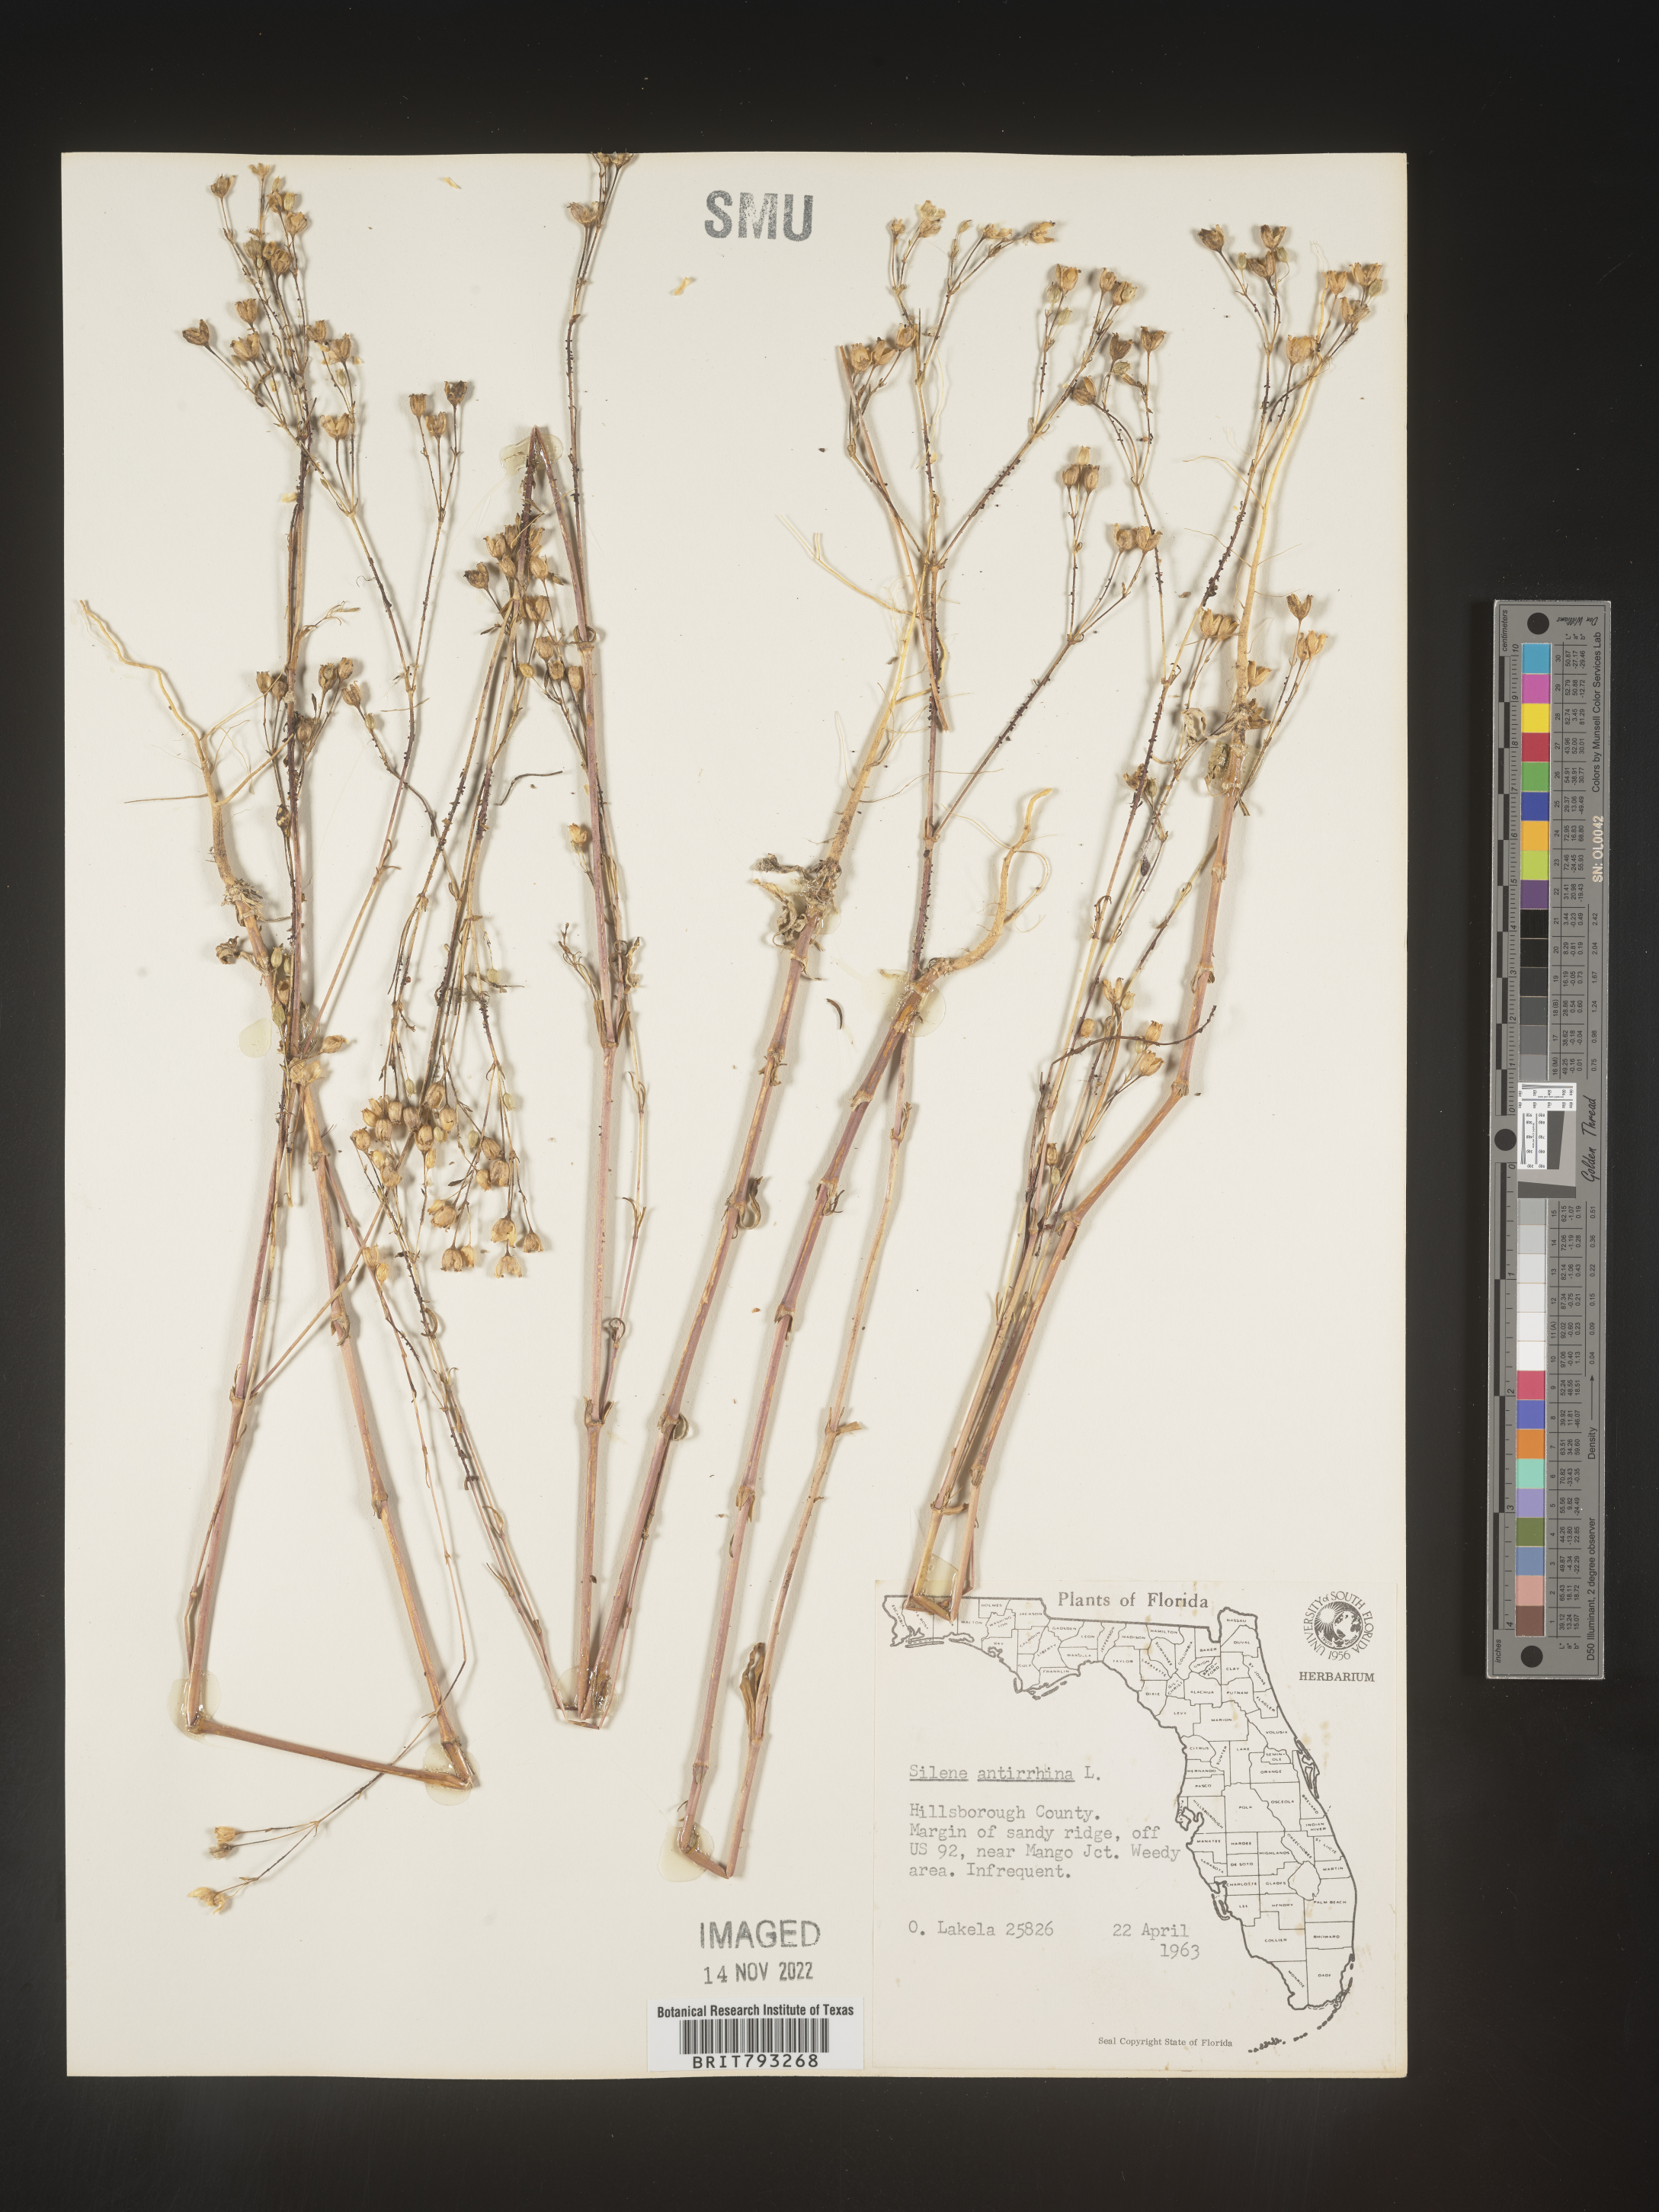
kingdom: Plantae
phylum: Tracheophyta
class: Magnoliopsida
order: Caryophyllales
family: Caryophyllaceae
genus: Silene
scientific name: Silene antirrhina
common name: Sleepy catchfly
